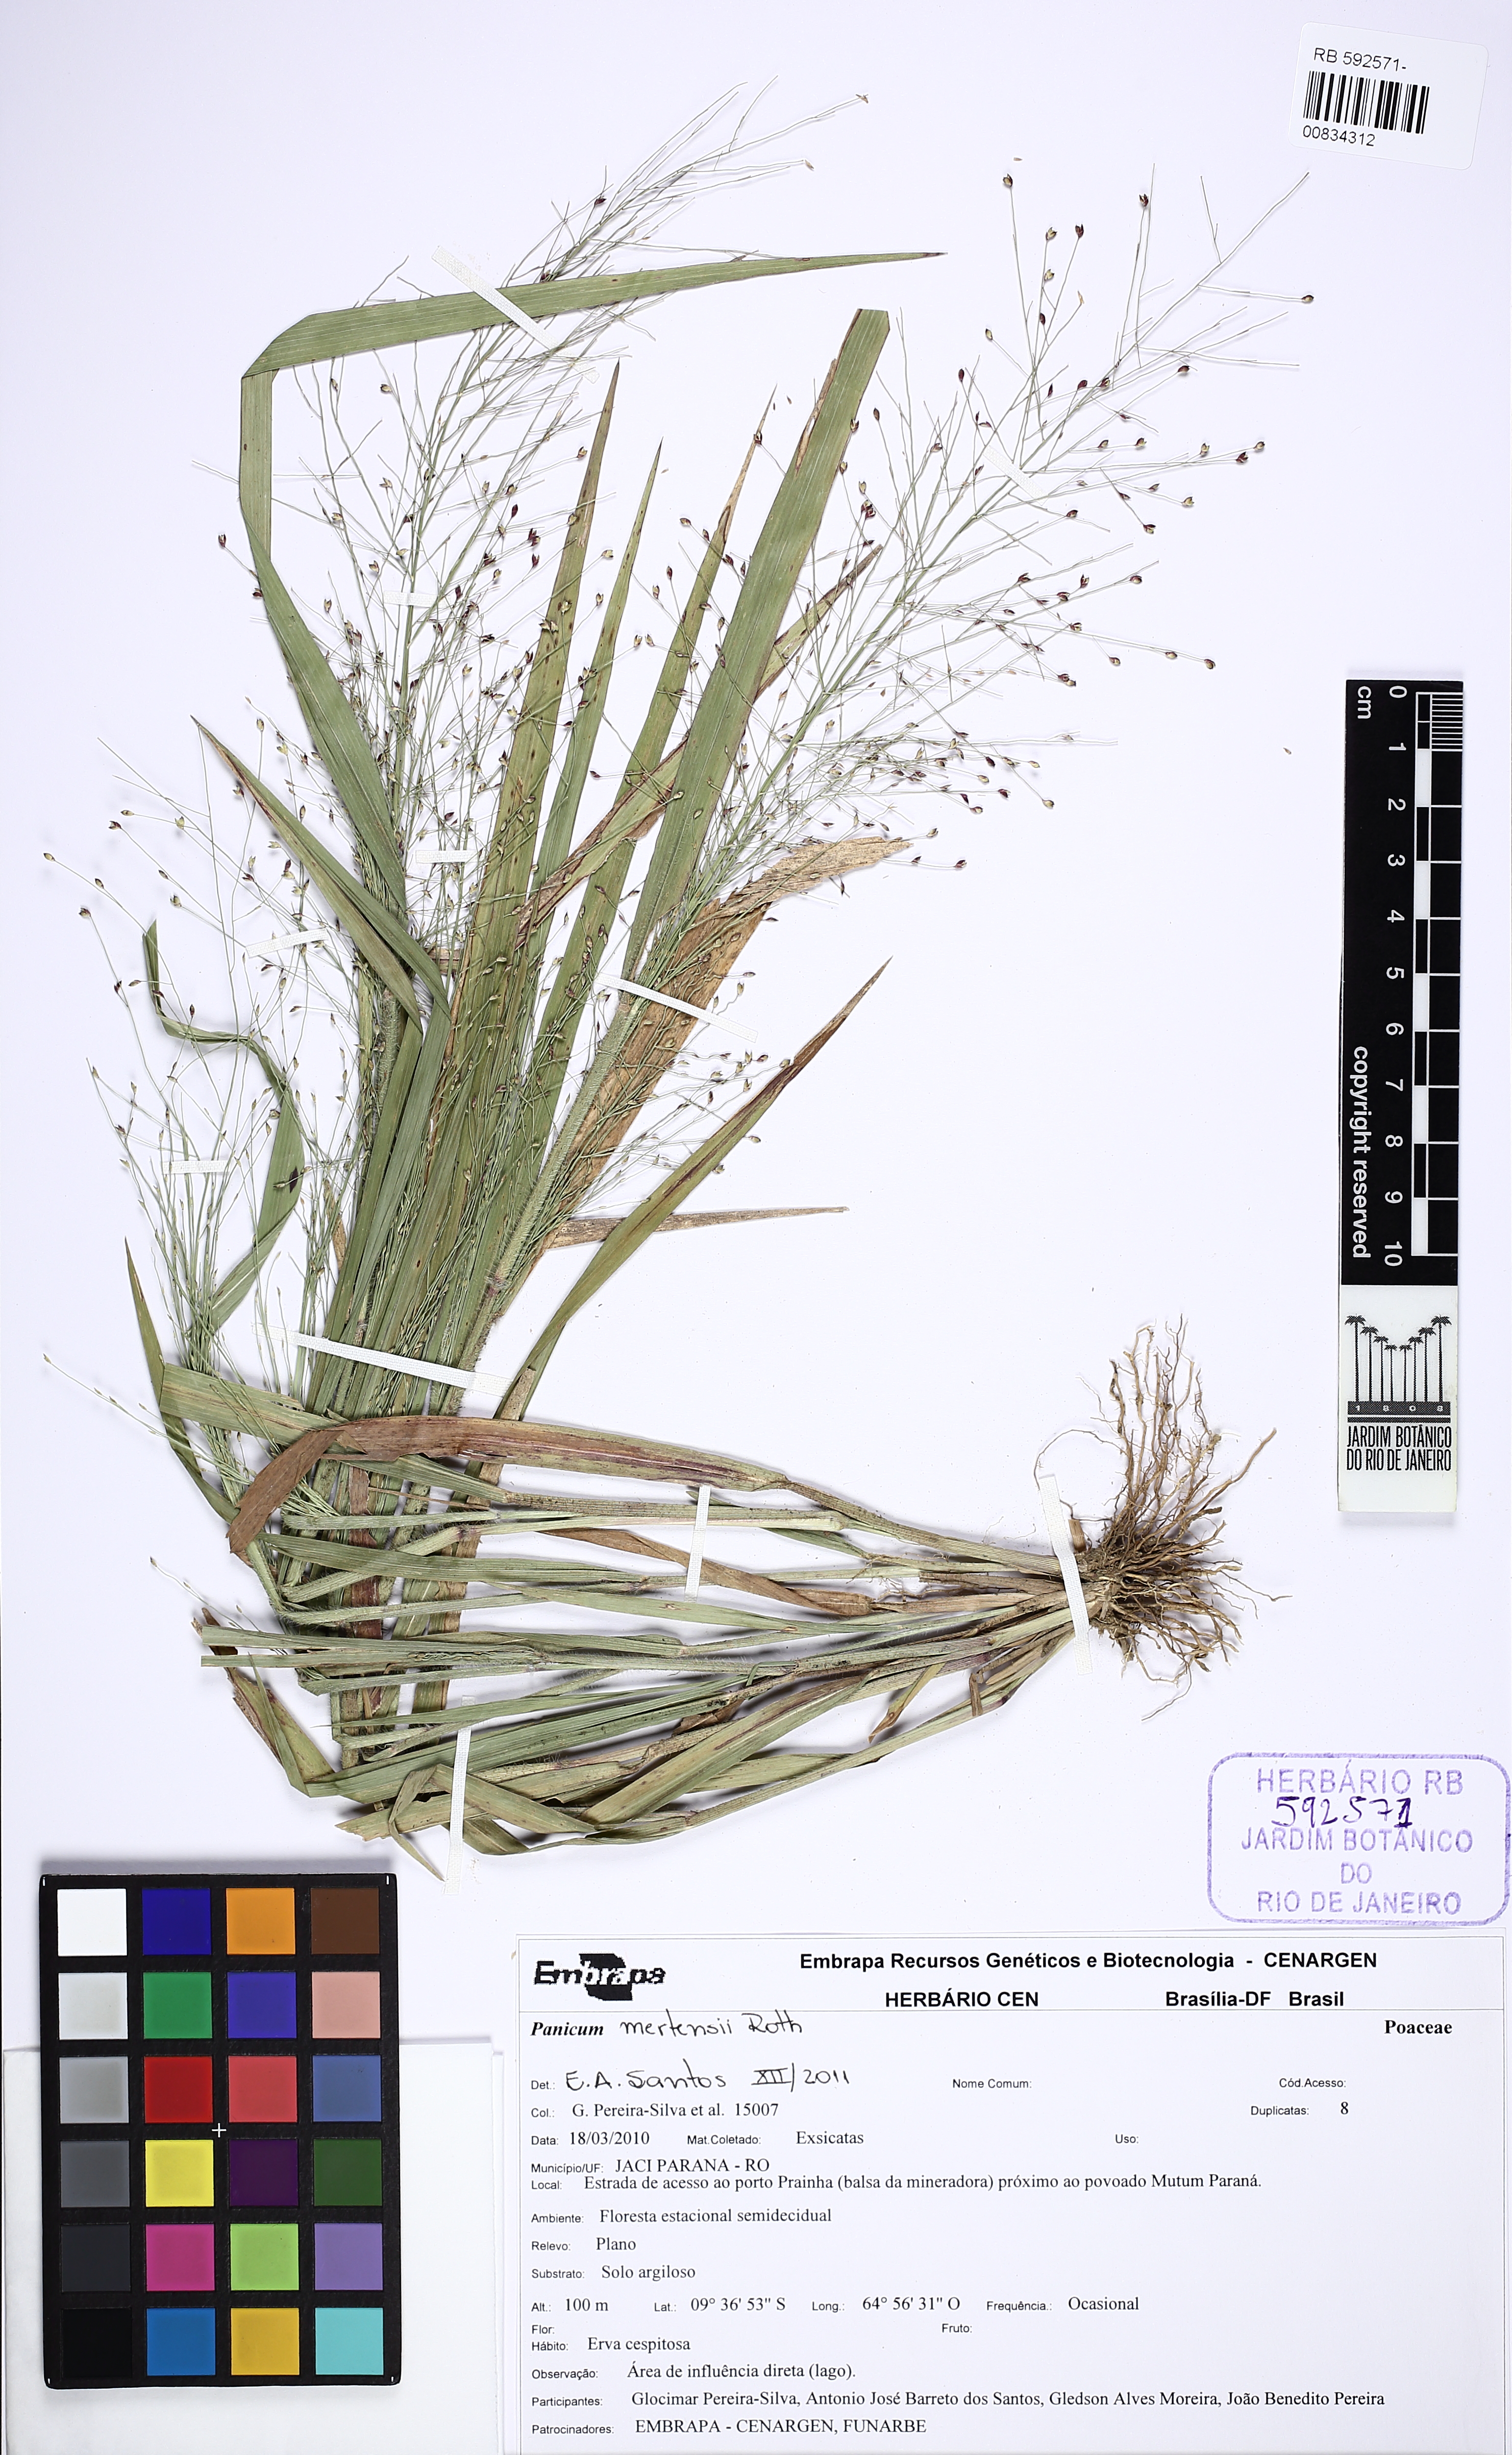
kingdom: Plantae
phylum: Tracheophyta
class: Liliopsida
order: Poales
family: Poaceae
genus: Panicum
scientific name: Panicum
